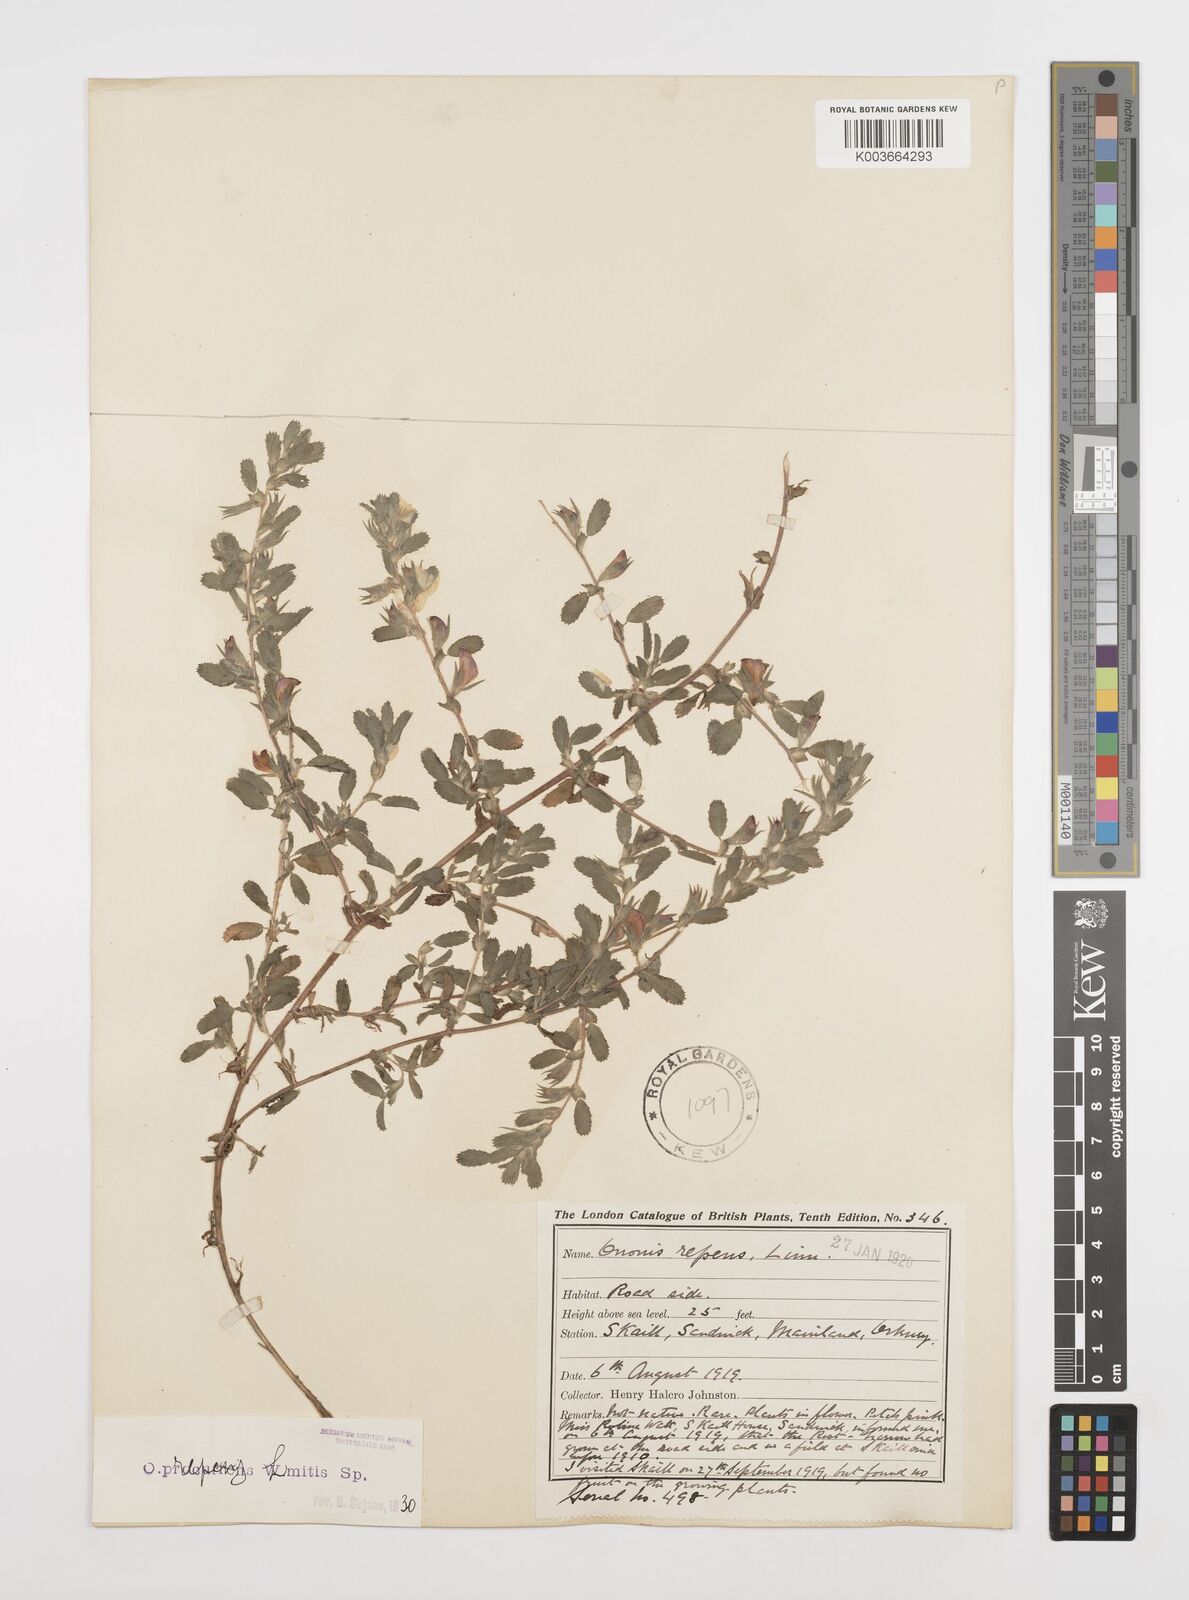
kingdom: Plantae
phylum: Tracheophyta
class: Magnoliopsida
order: Fabales
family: Fabaceae
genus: Ononis
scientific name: Ononis spinosa
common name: Spiny restharrow
